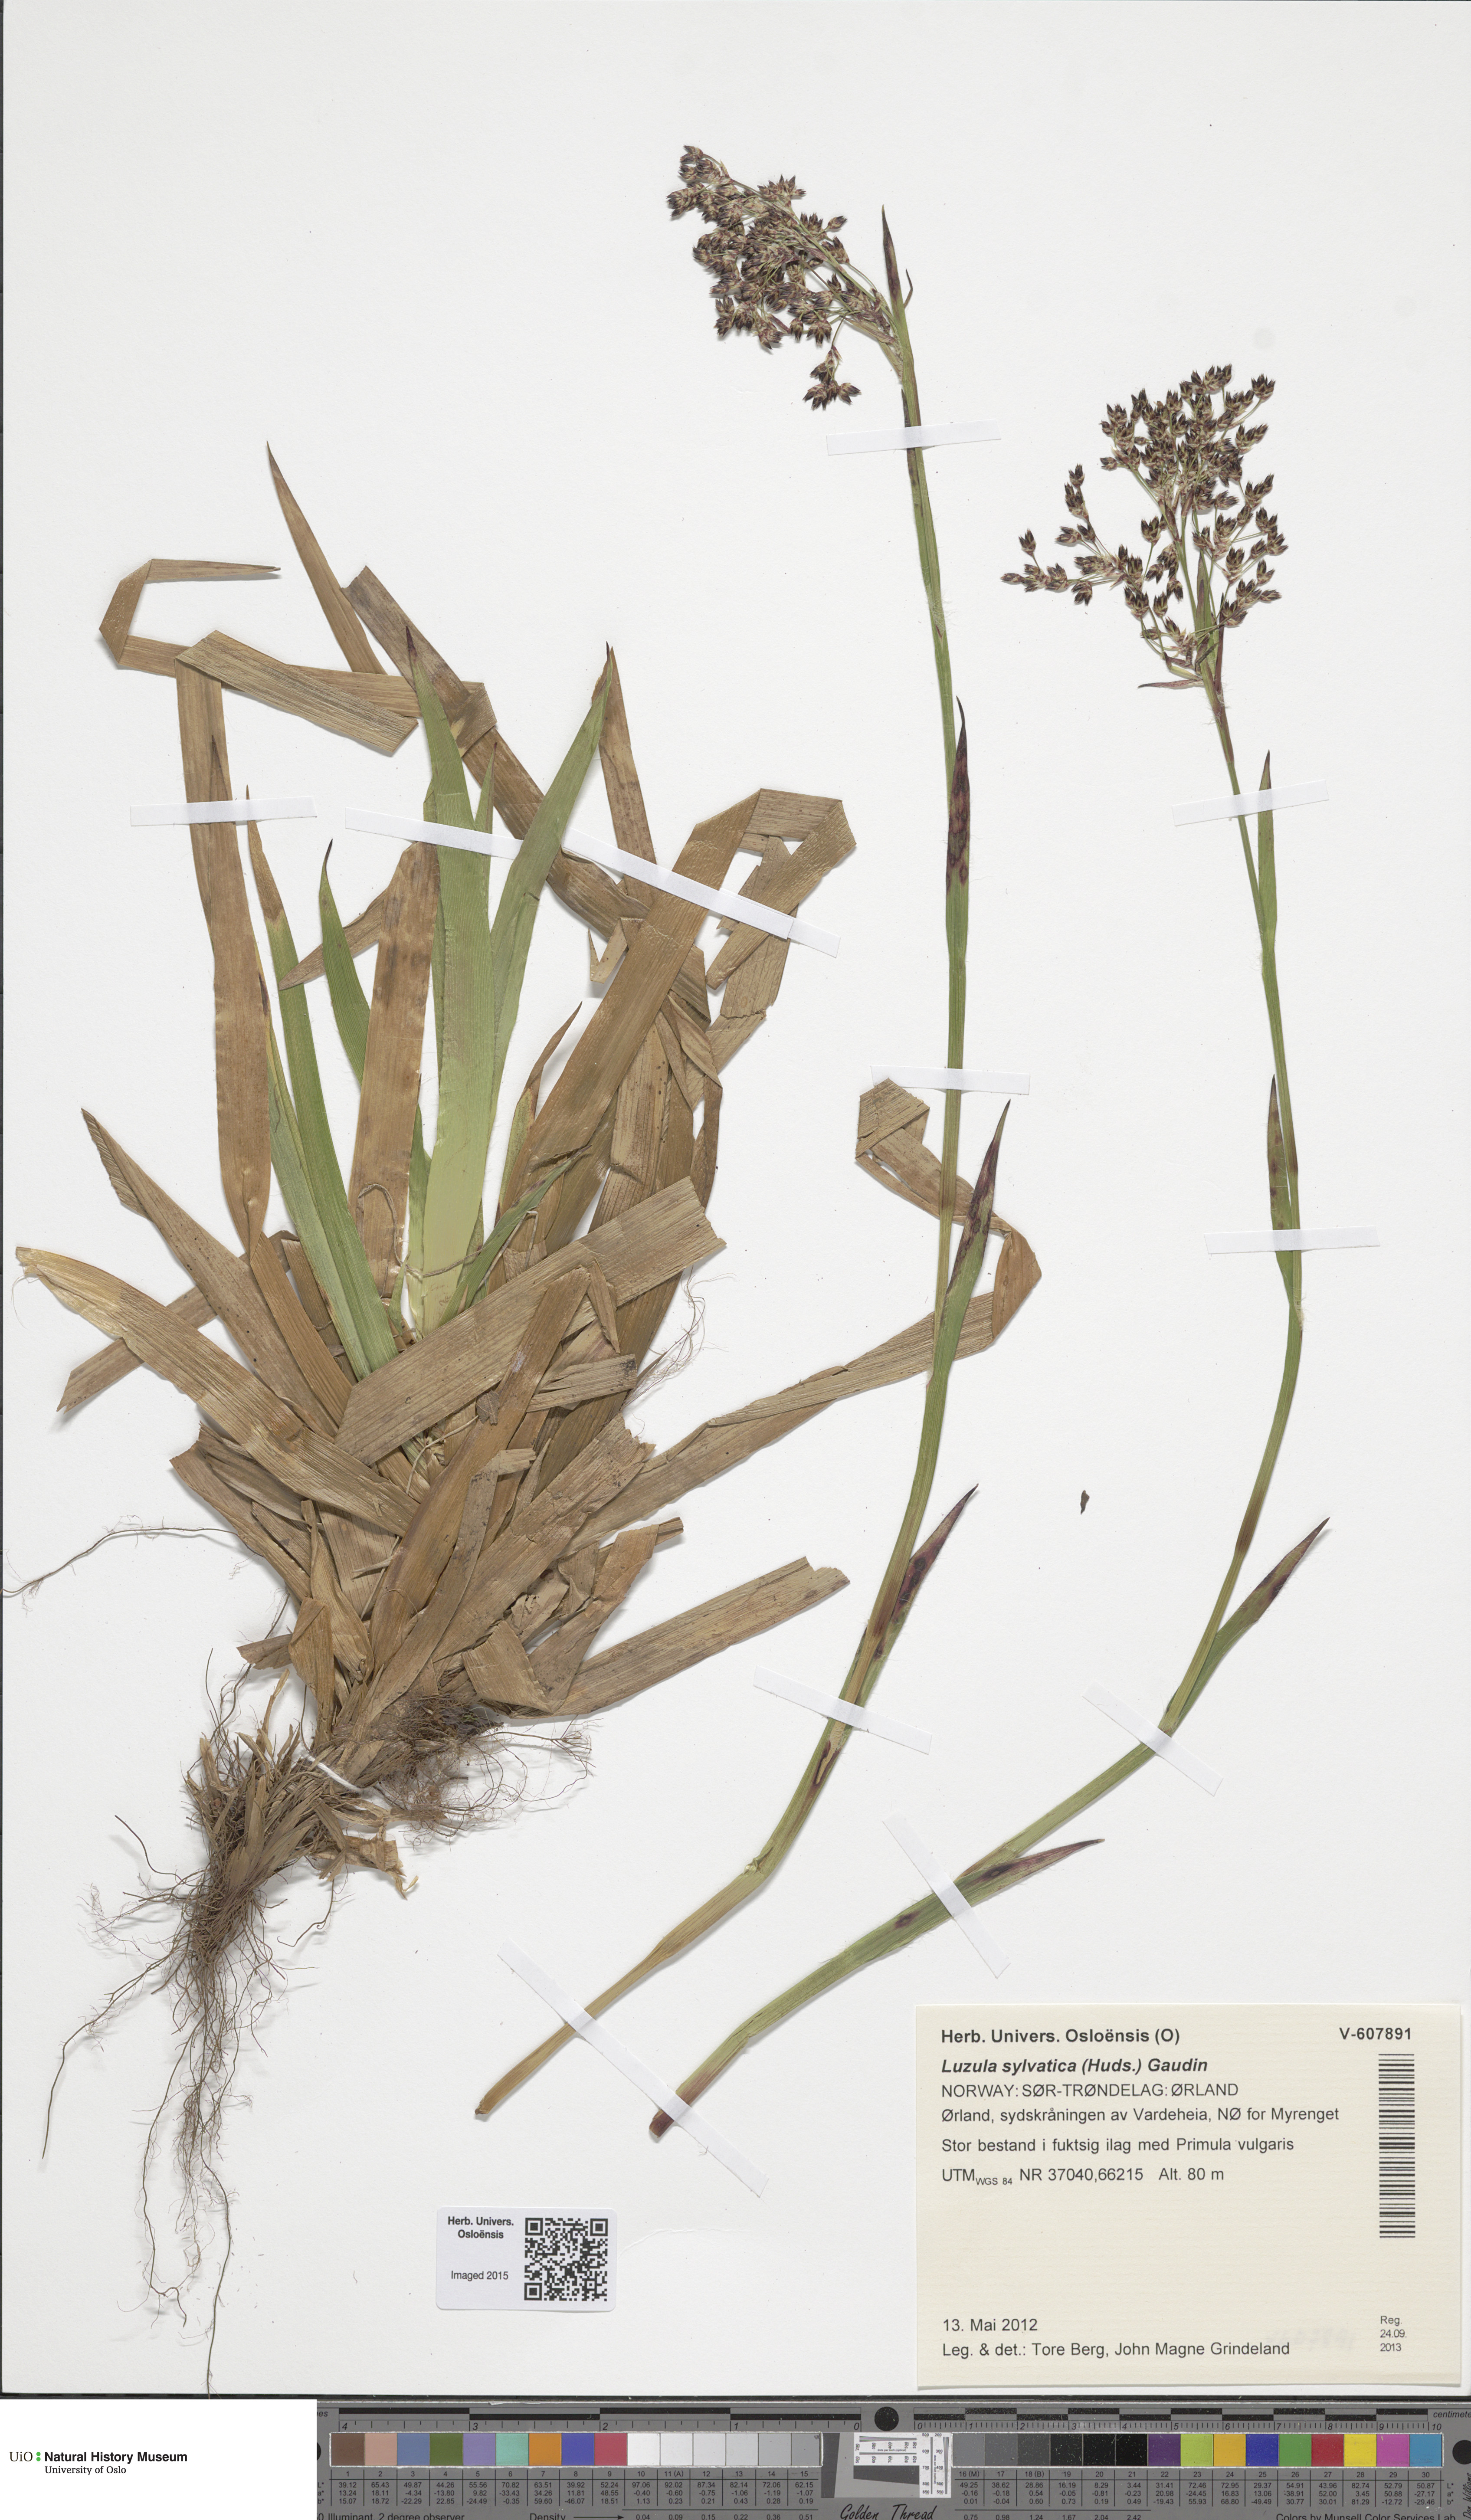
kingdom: Plantae
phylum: Tracheophyta
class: Liliopsida
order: Poales
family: Juncaceae
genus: Luzula
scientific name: Luzula sylvatica
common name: Great wood-rush
